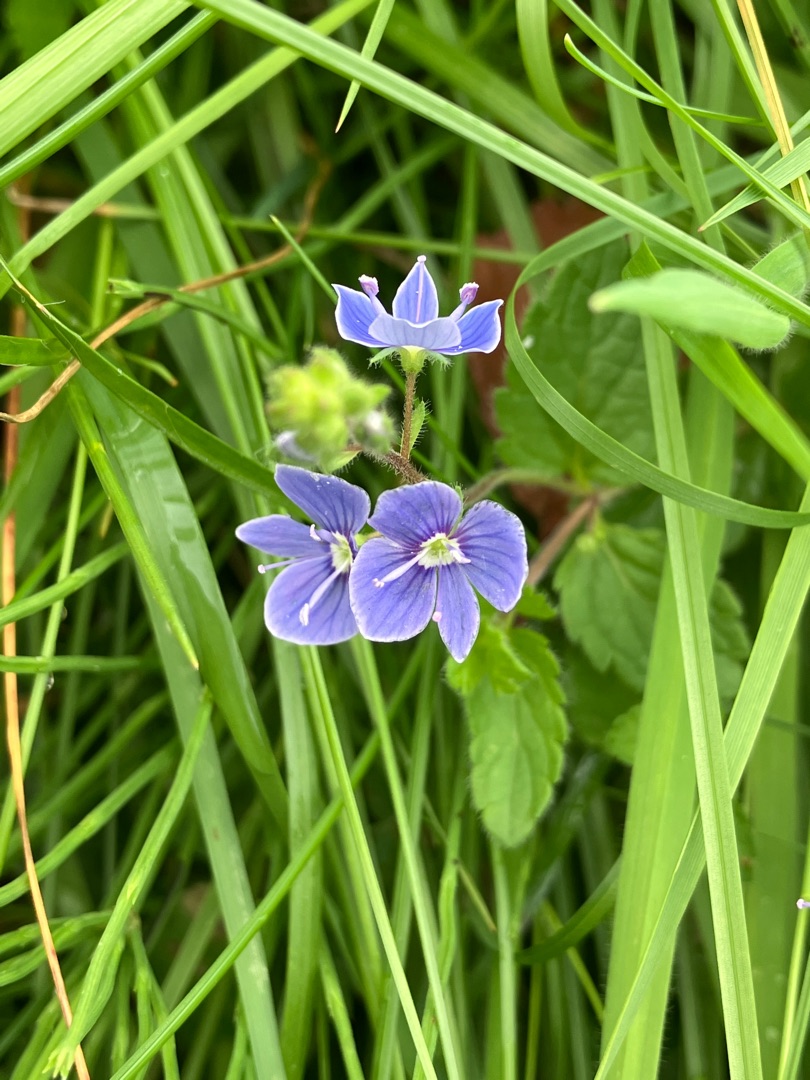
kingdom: Plantae
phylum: Tracheophyta
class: Magnoliopsida
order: Lamiales
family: Plantaginaceae
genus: Veronica
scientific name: Veronica chamaedrys
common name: Tveskægget ærenpris
